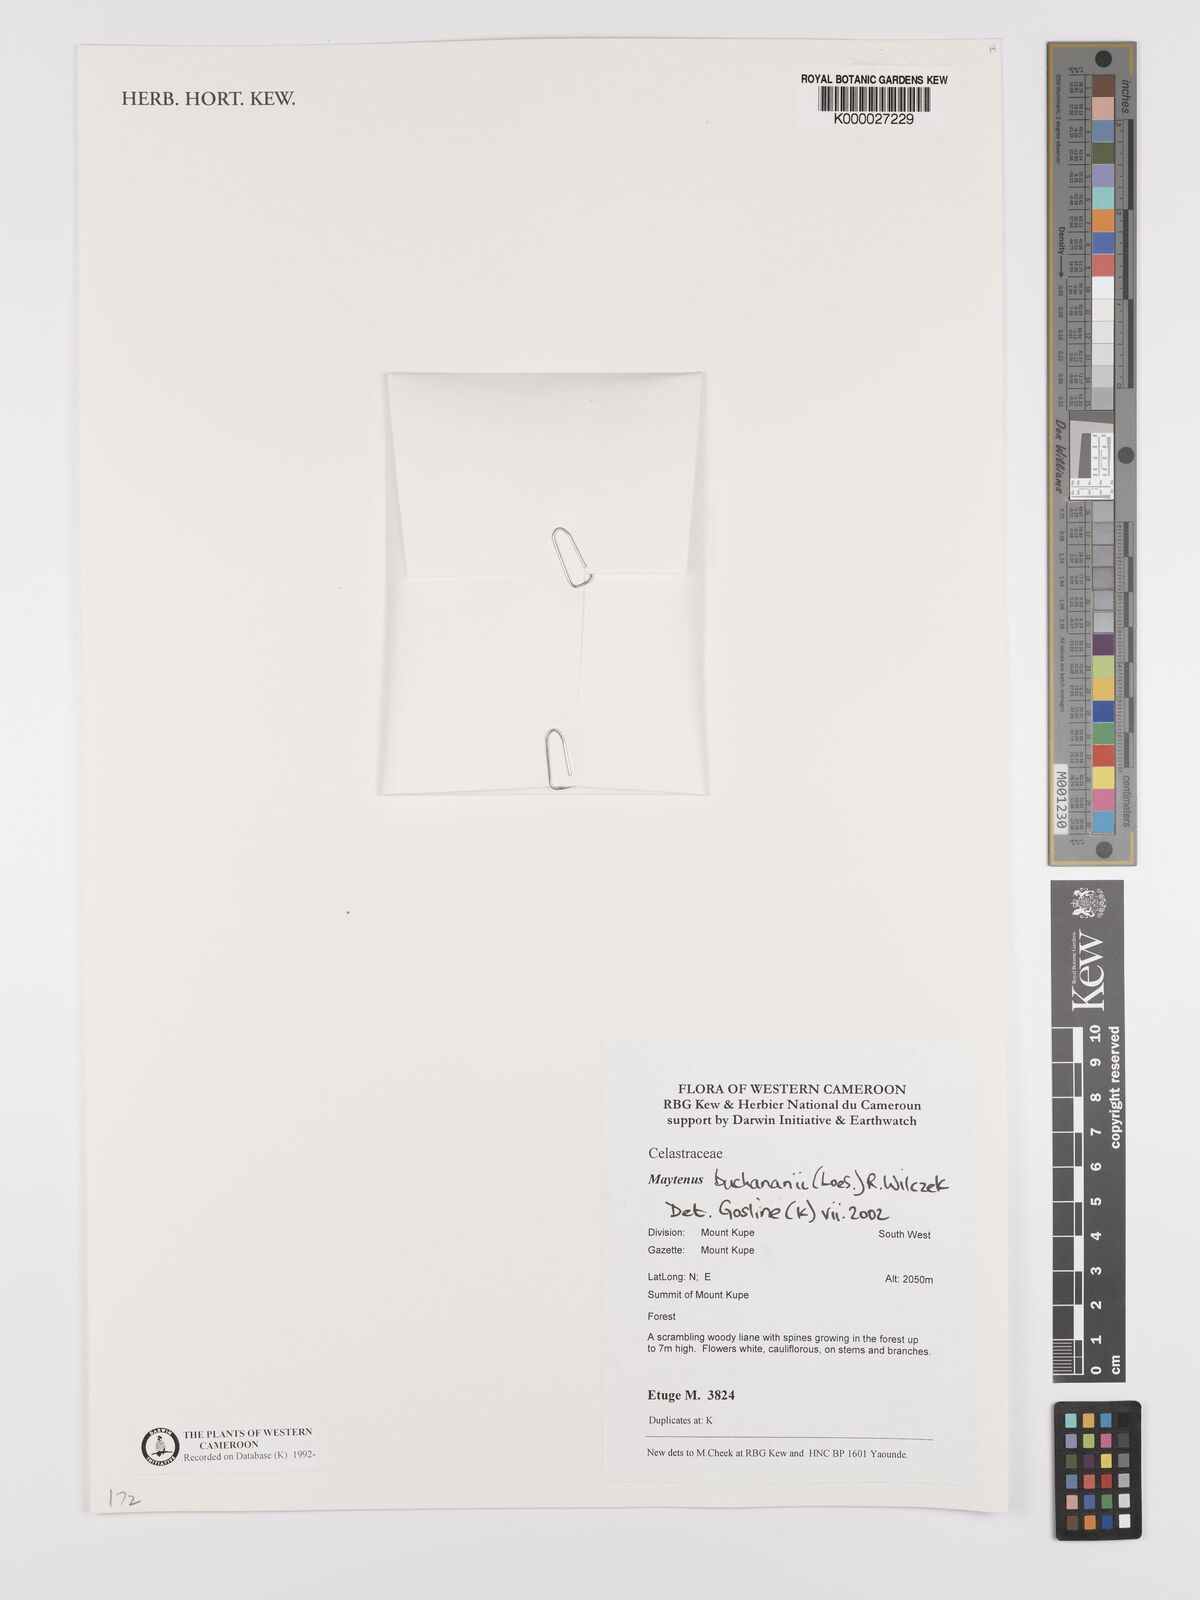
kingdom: Plantae
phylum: Tracheophyta
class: Magnoliopsida
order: Celastrales
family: Celastraceae
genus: Gymnosporia
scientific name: Gymnosporia buchananii
